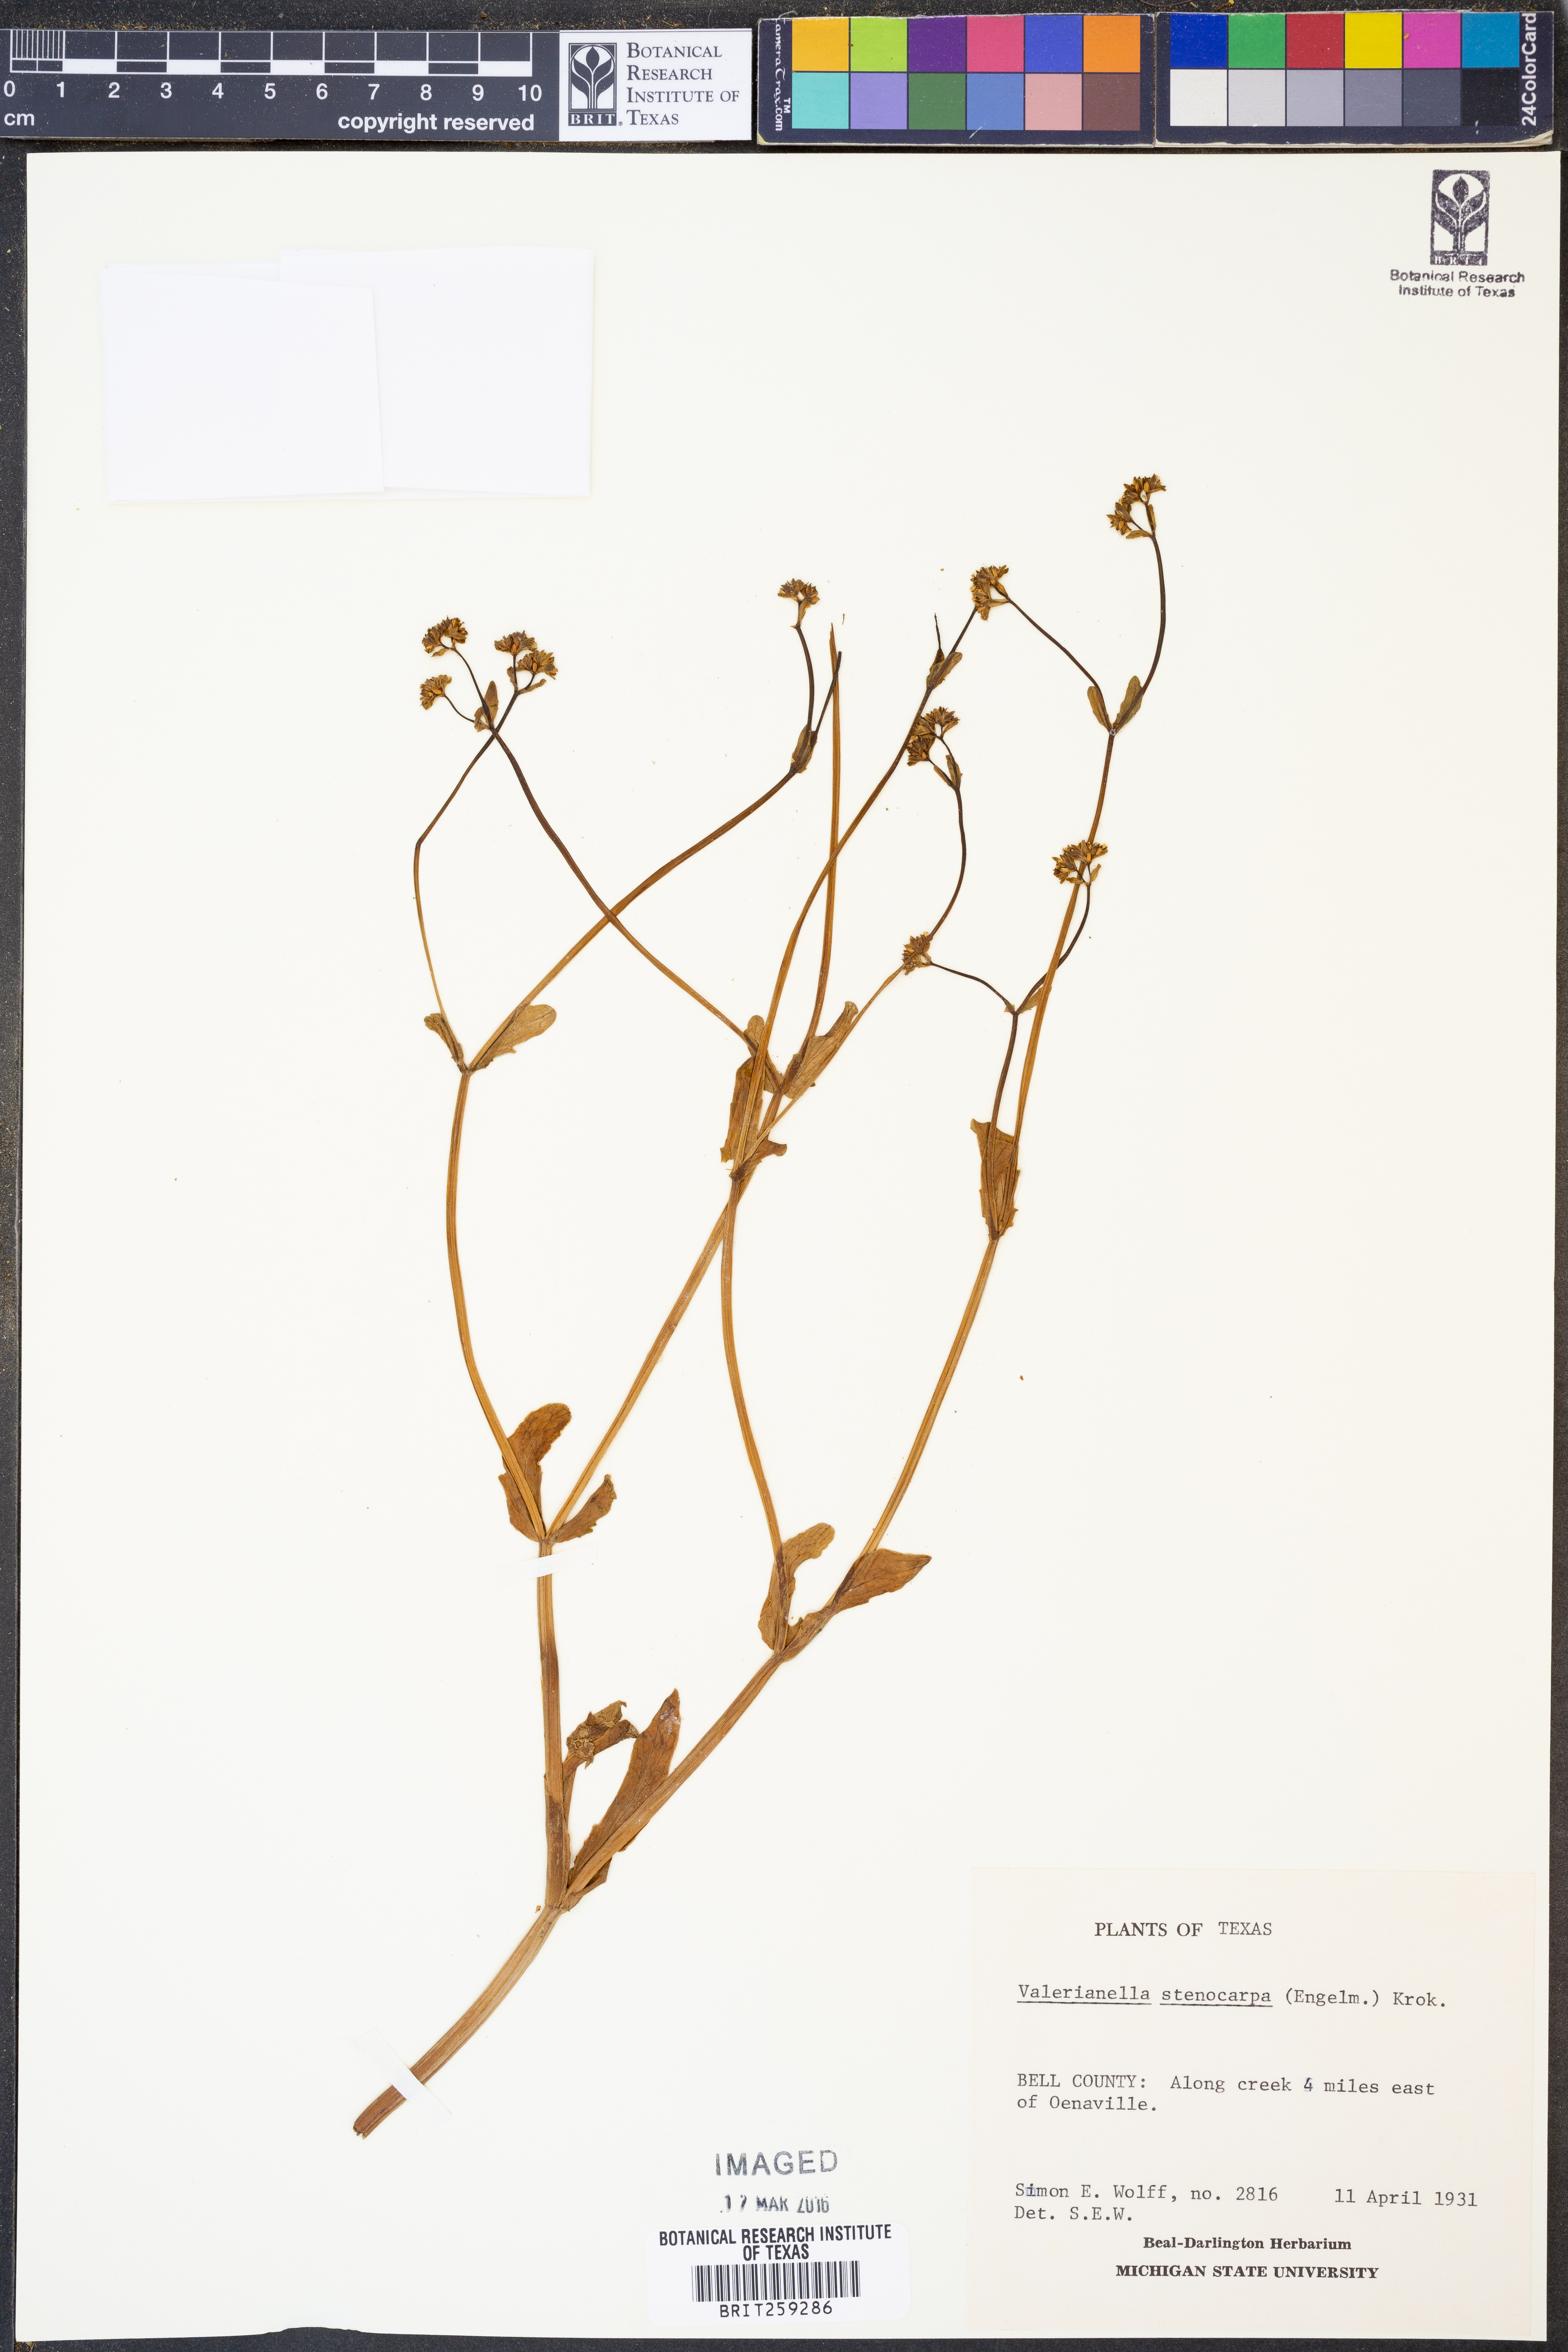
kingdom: Plantae
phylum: Tracheophyta
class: Magnoliopsida
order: Dipsacales
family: Caprifoliaceae
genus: Valerianella
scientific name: Valerianella stenocarpa
